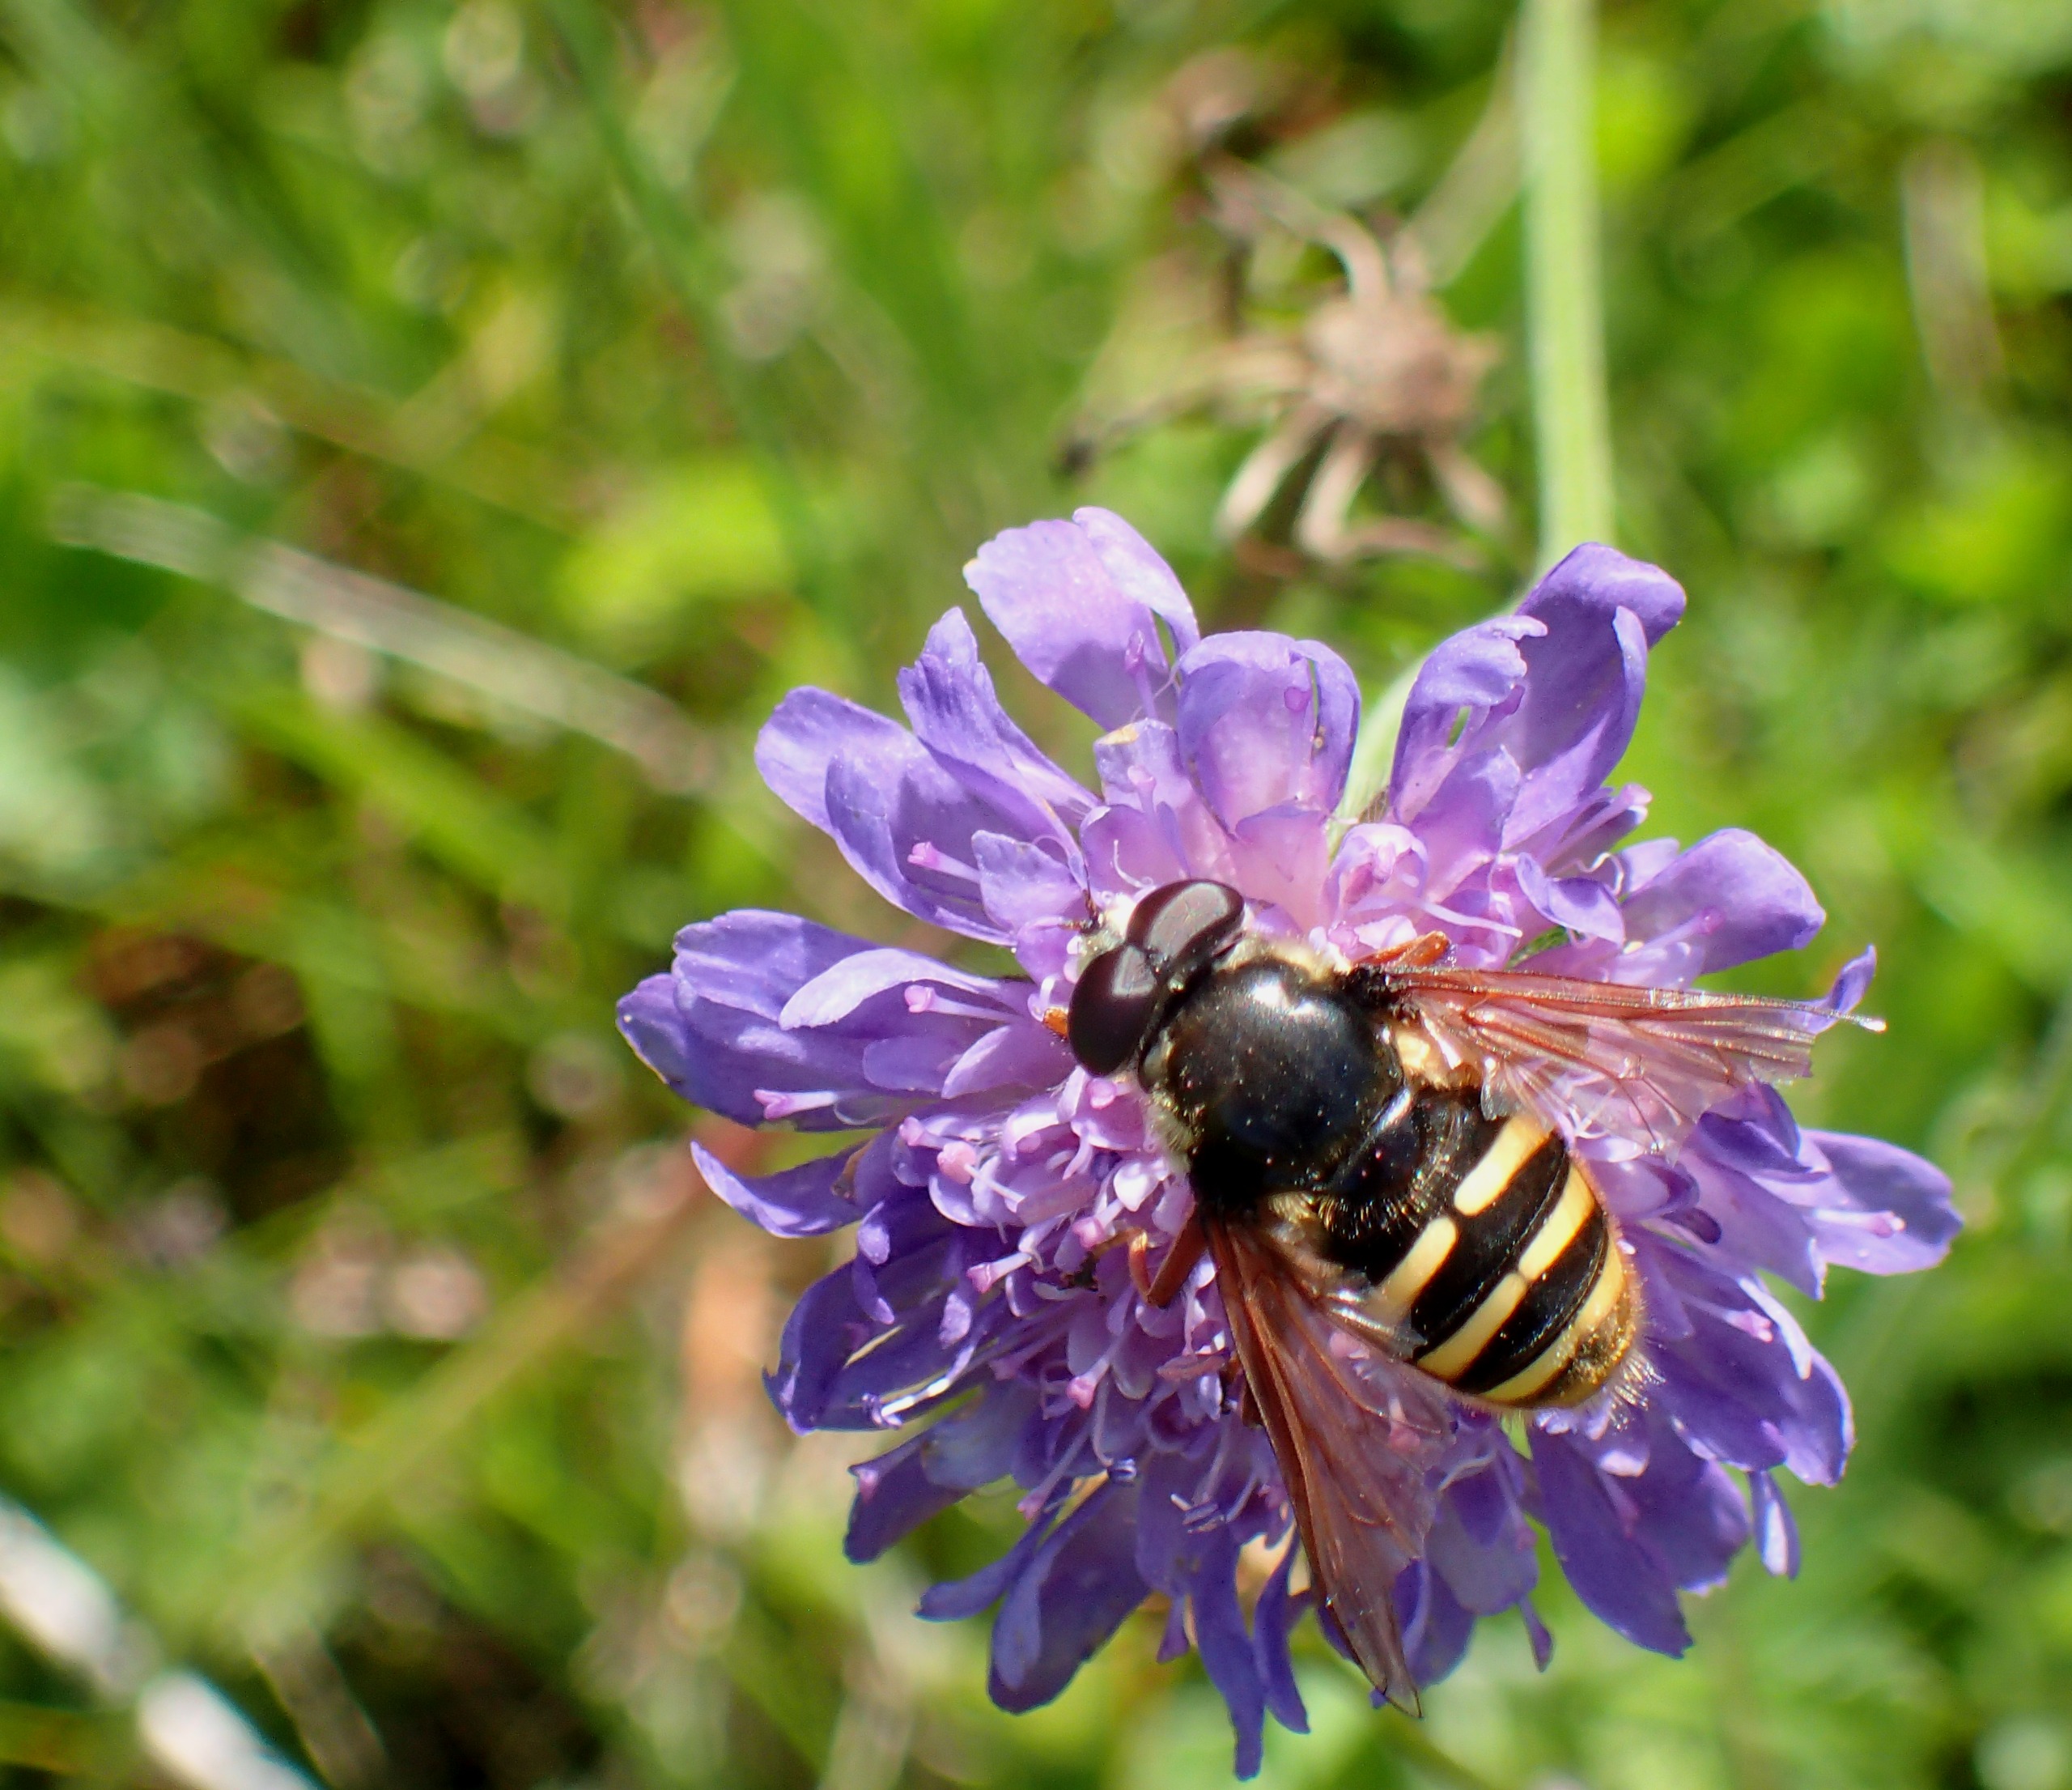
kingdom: Animalia
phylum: Arthropoda
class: Insecta
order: Diptera
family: Syrphidae
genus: Sericomyia
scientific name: Sericomyia silentis
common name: Tørve-silkesvirreflue
